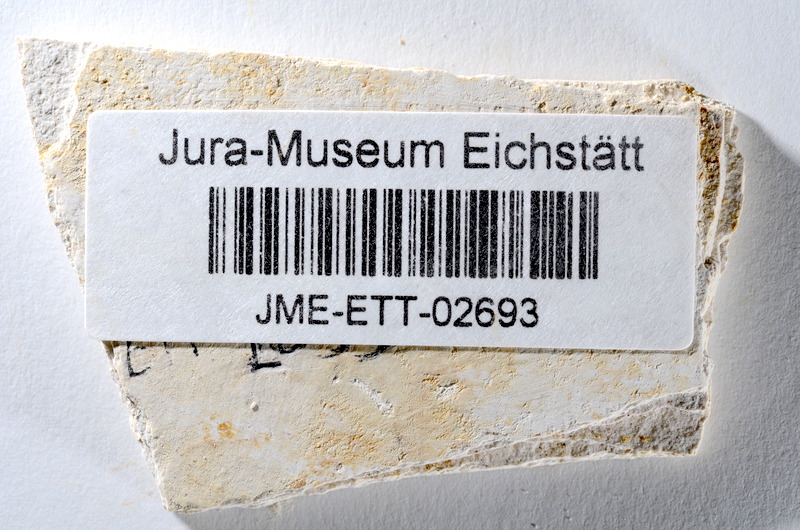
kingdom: Animalia
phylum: Chordata
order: Salmoniformes
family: Orthogonikleithridae
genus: Orthogonikleithrus
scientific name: Orthogonikleithrus hoelli
